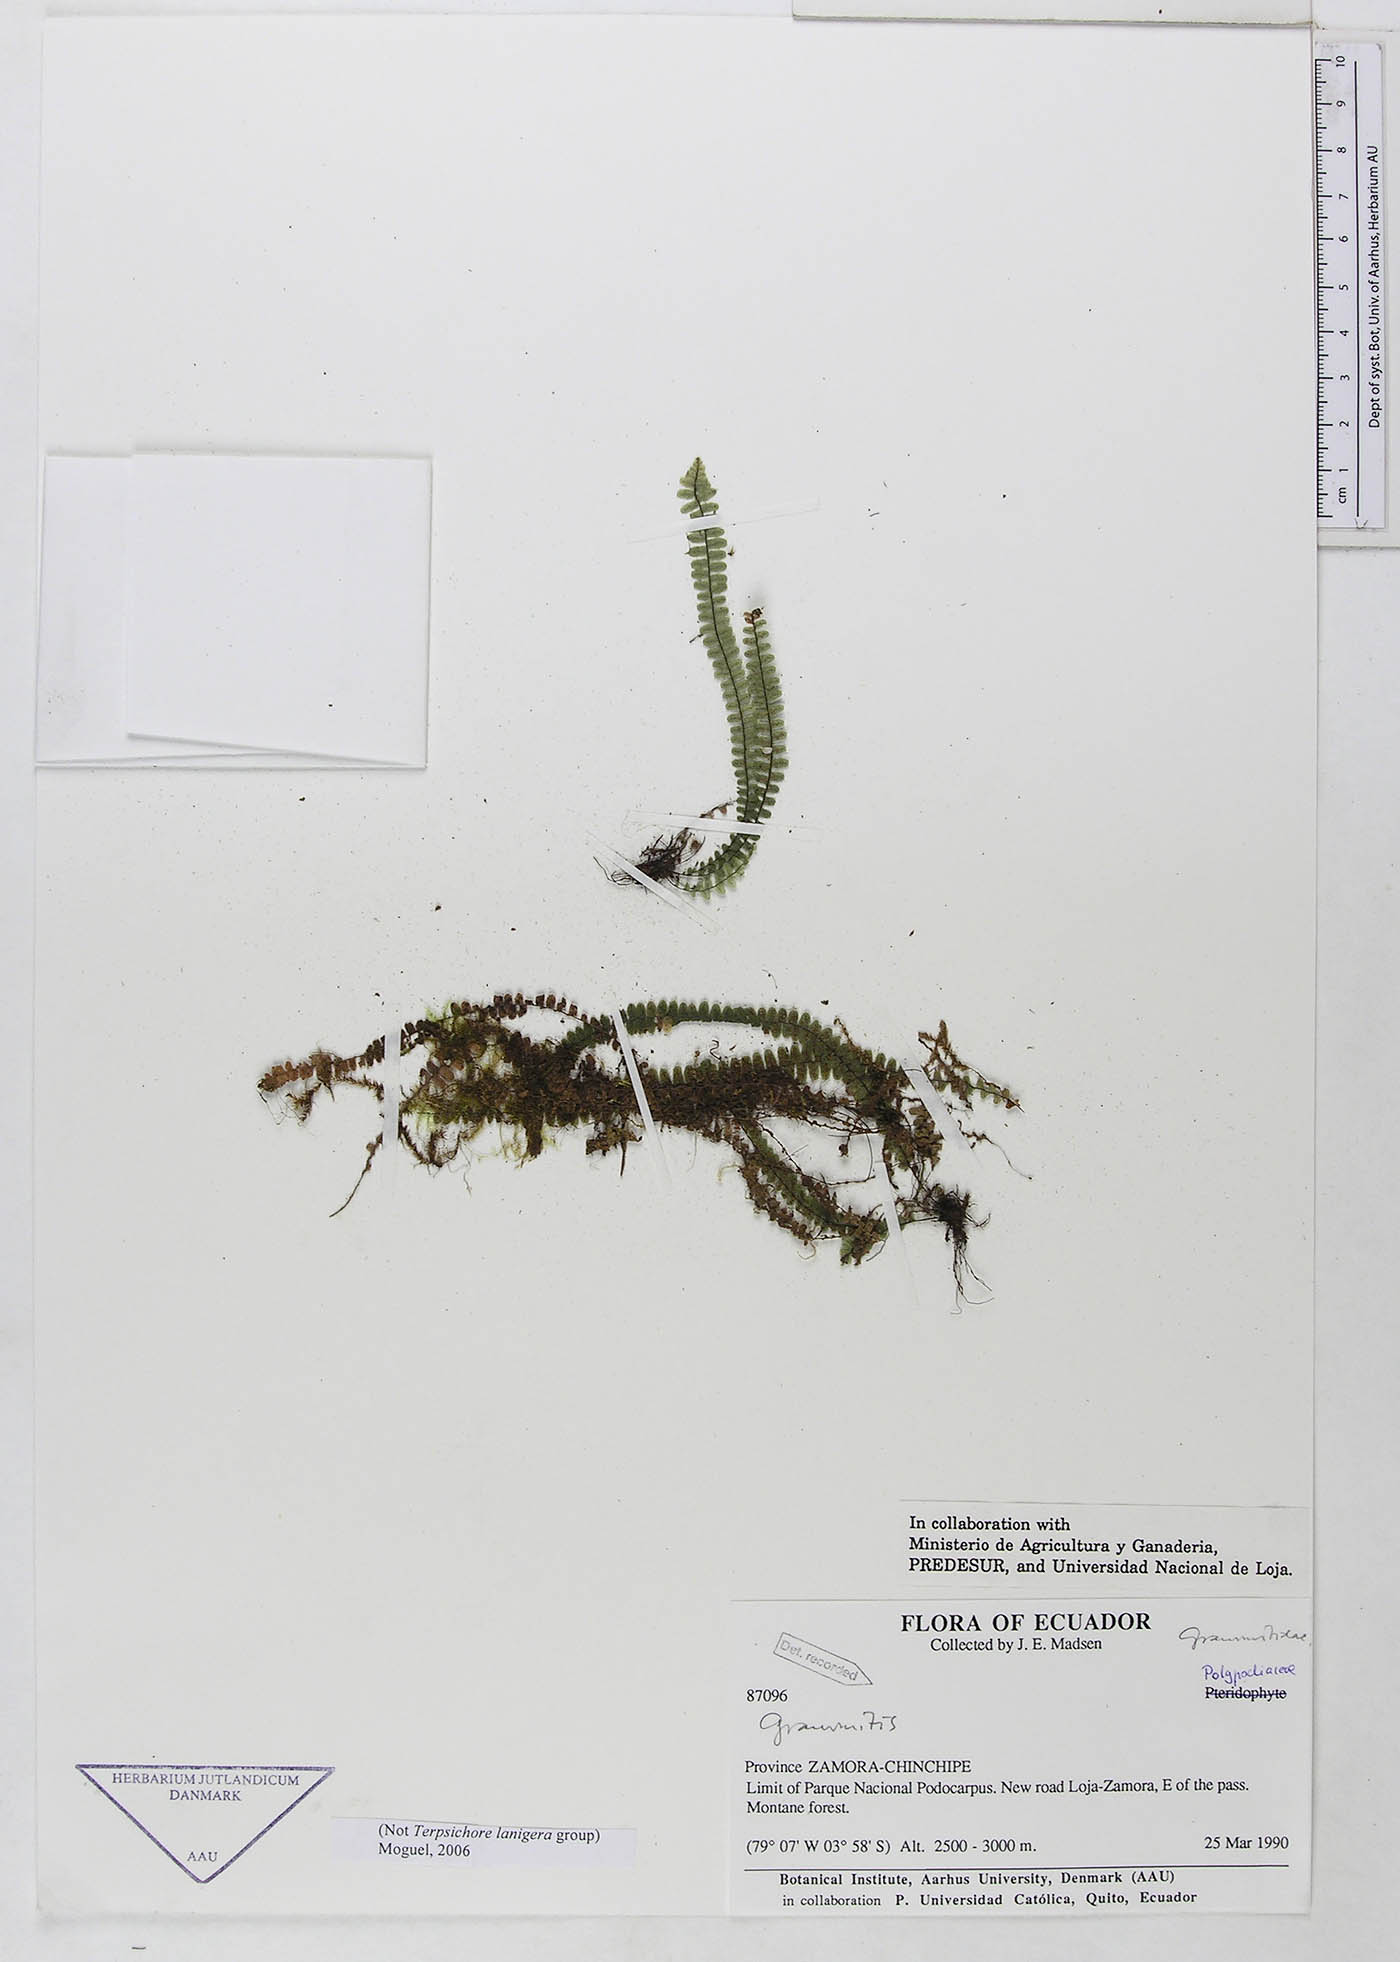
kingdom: Plantae
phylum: Tracheophyta
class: Polypodiopsida
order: Polypodiales
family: Polypodiaceae
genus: Grammitis
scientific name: Grammitis
